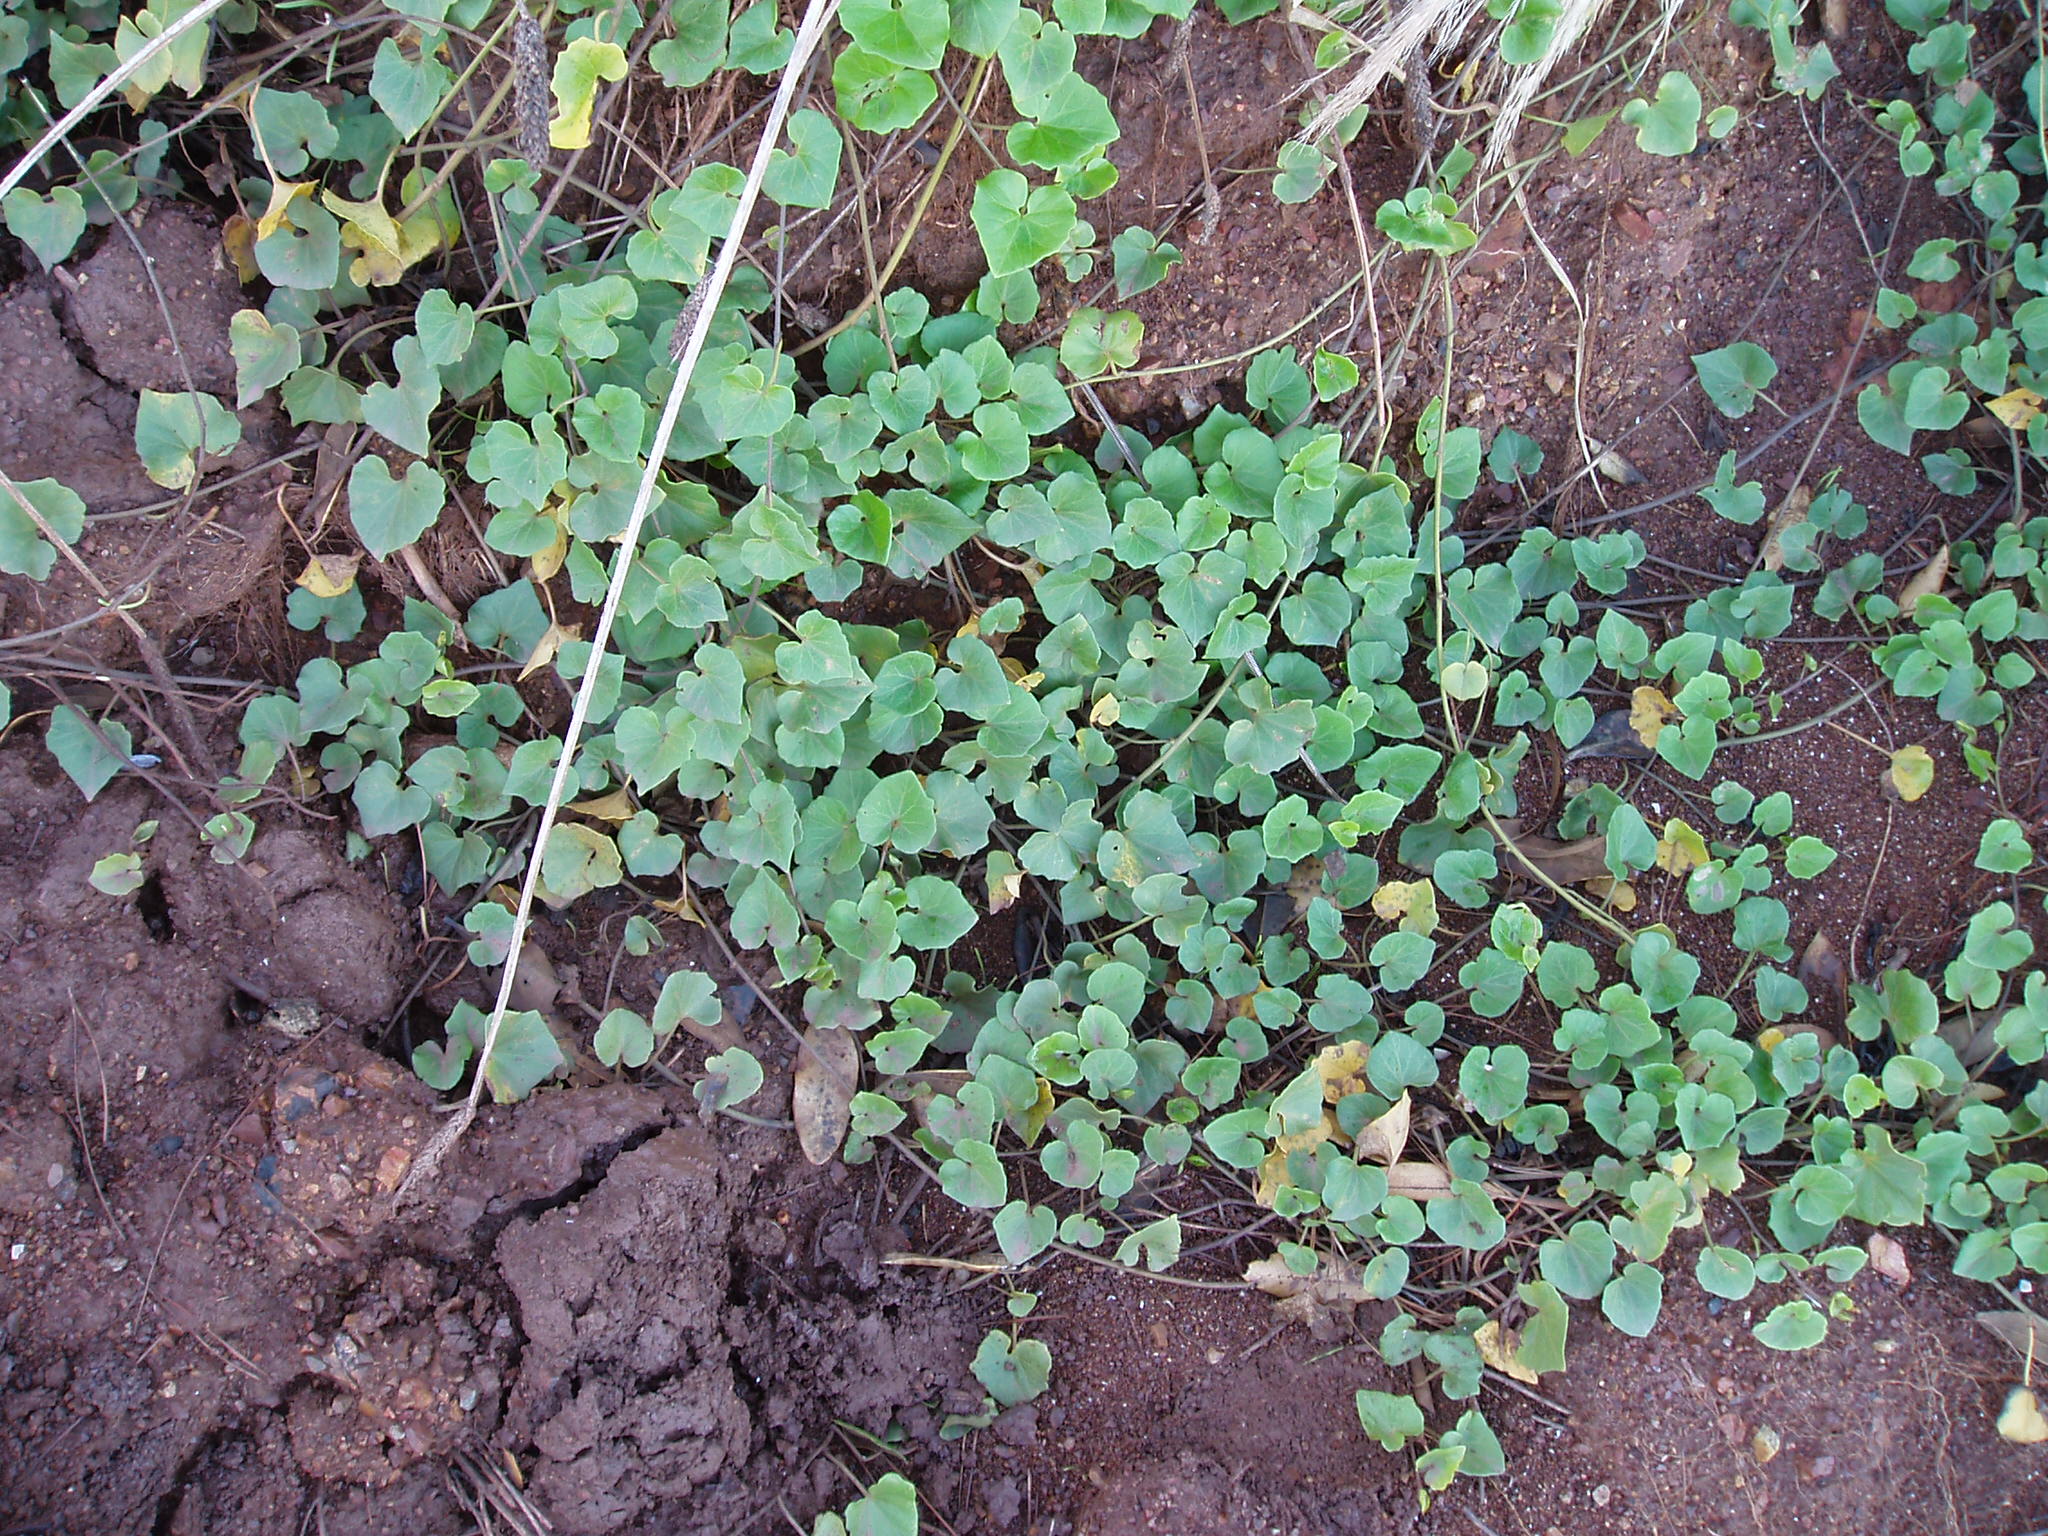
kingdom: Plantae
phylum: Tracheophyta
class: Magnoliopsida
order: Solanales
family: Convolvulaceae
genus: Calystegia
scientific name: Calystegia
